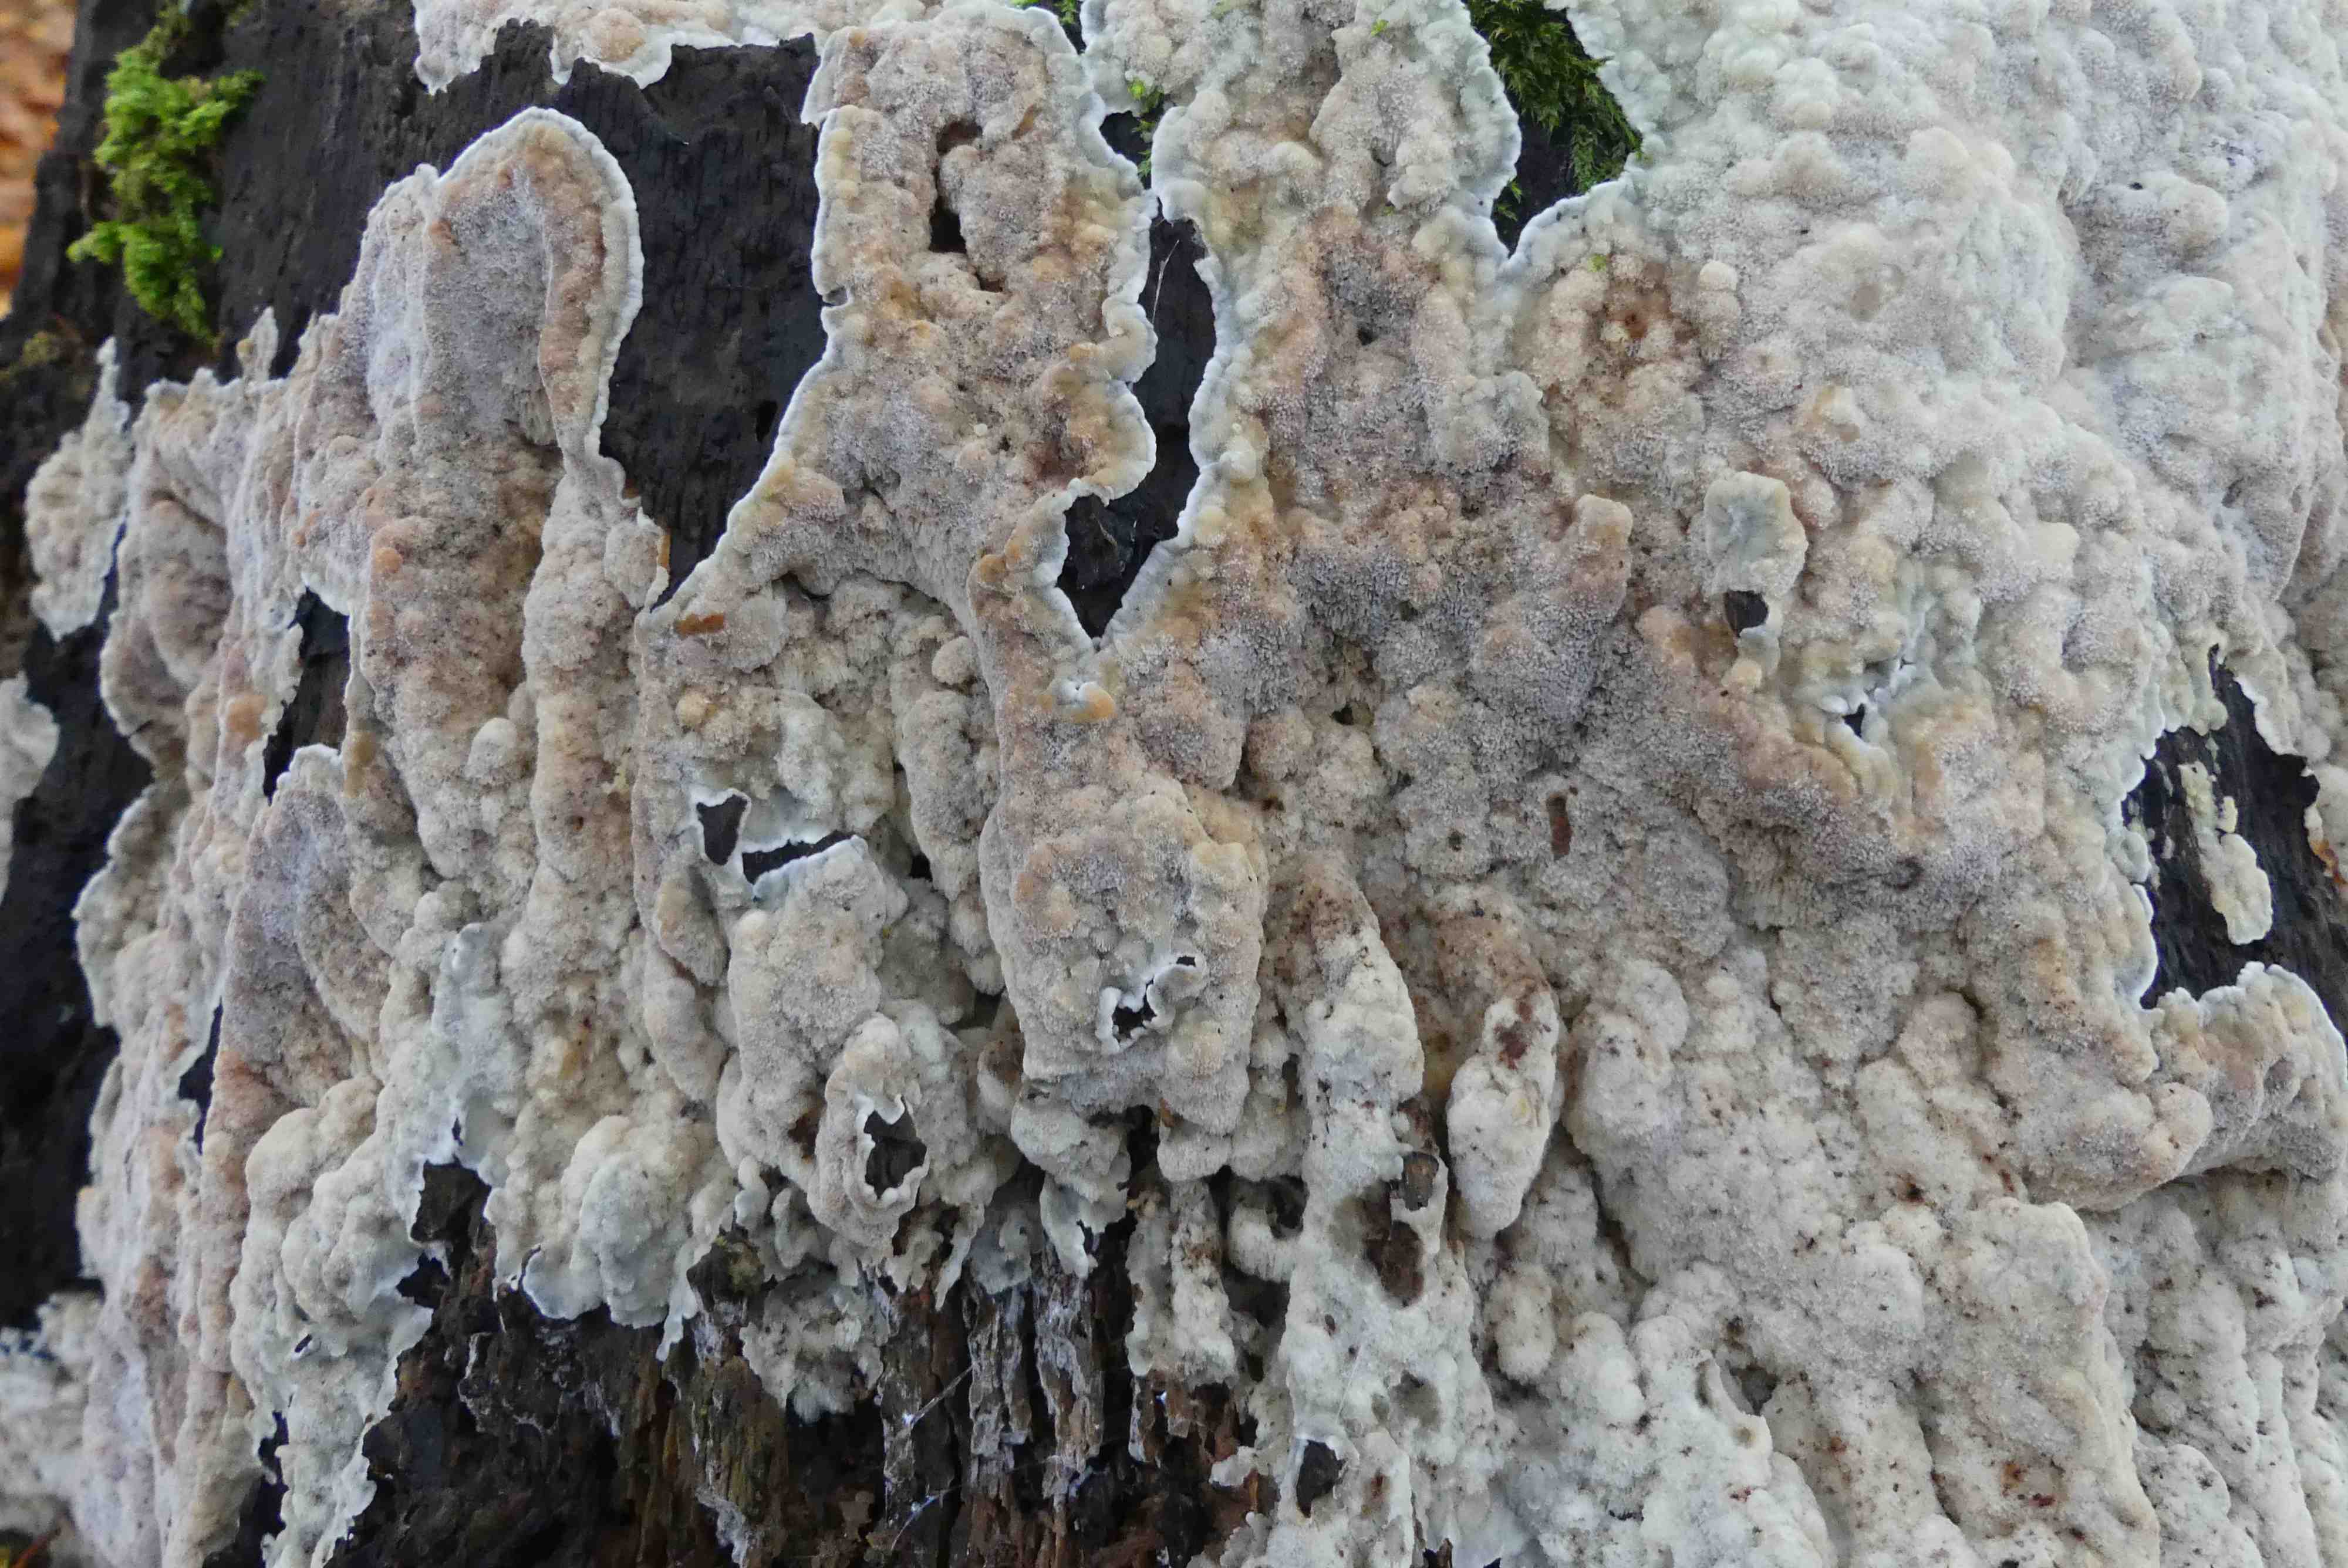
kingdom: Fungi
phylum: Basidiomycota
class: Agaricomycetes
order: Polyporales
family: Meruliaceae
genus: Physisporinus
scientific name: Physisporinus vitreus
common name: mastesvamp
